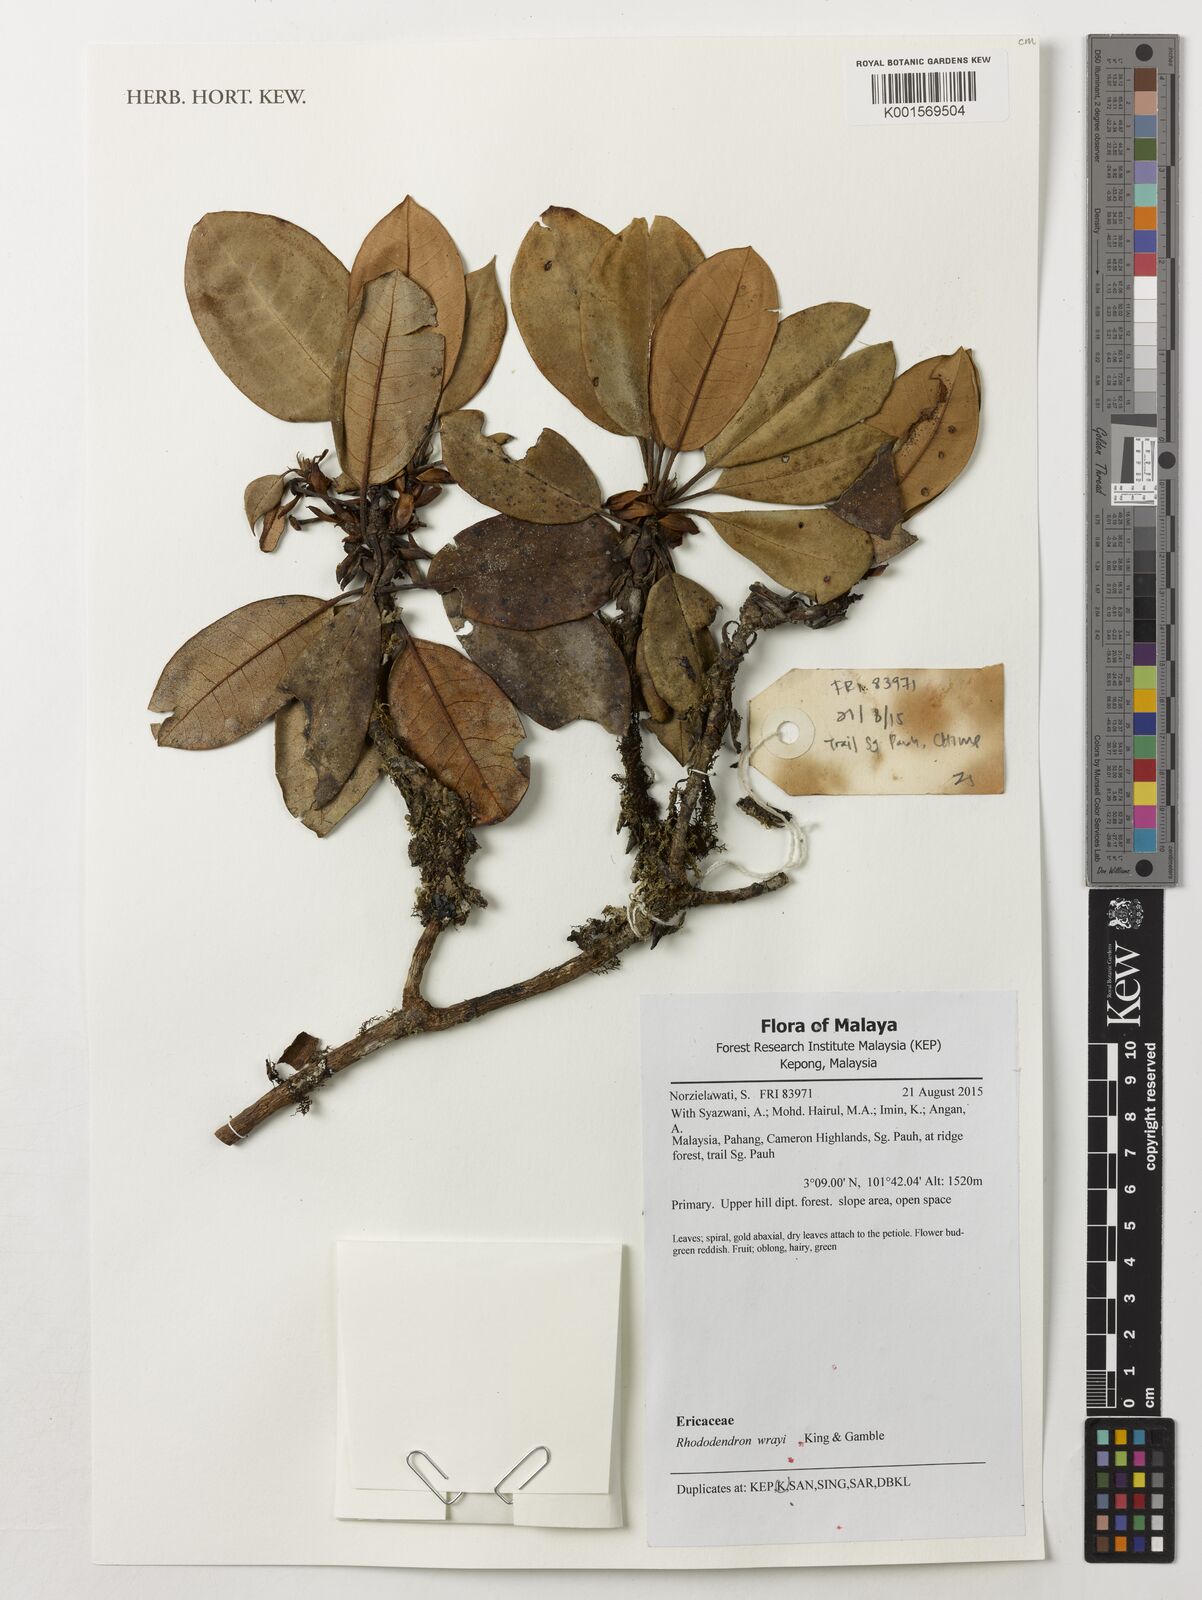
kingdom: Plantae
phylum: Tracheophyta
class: Magnoliopsida
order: Ericales
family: Ericaceae
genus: Rhododendron
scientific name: Rhododendron wrayi
